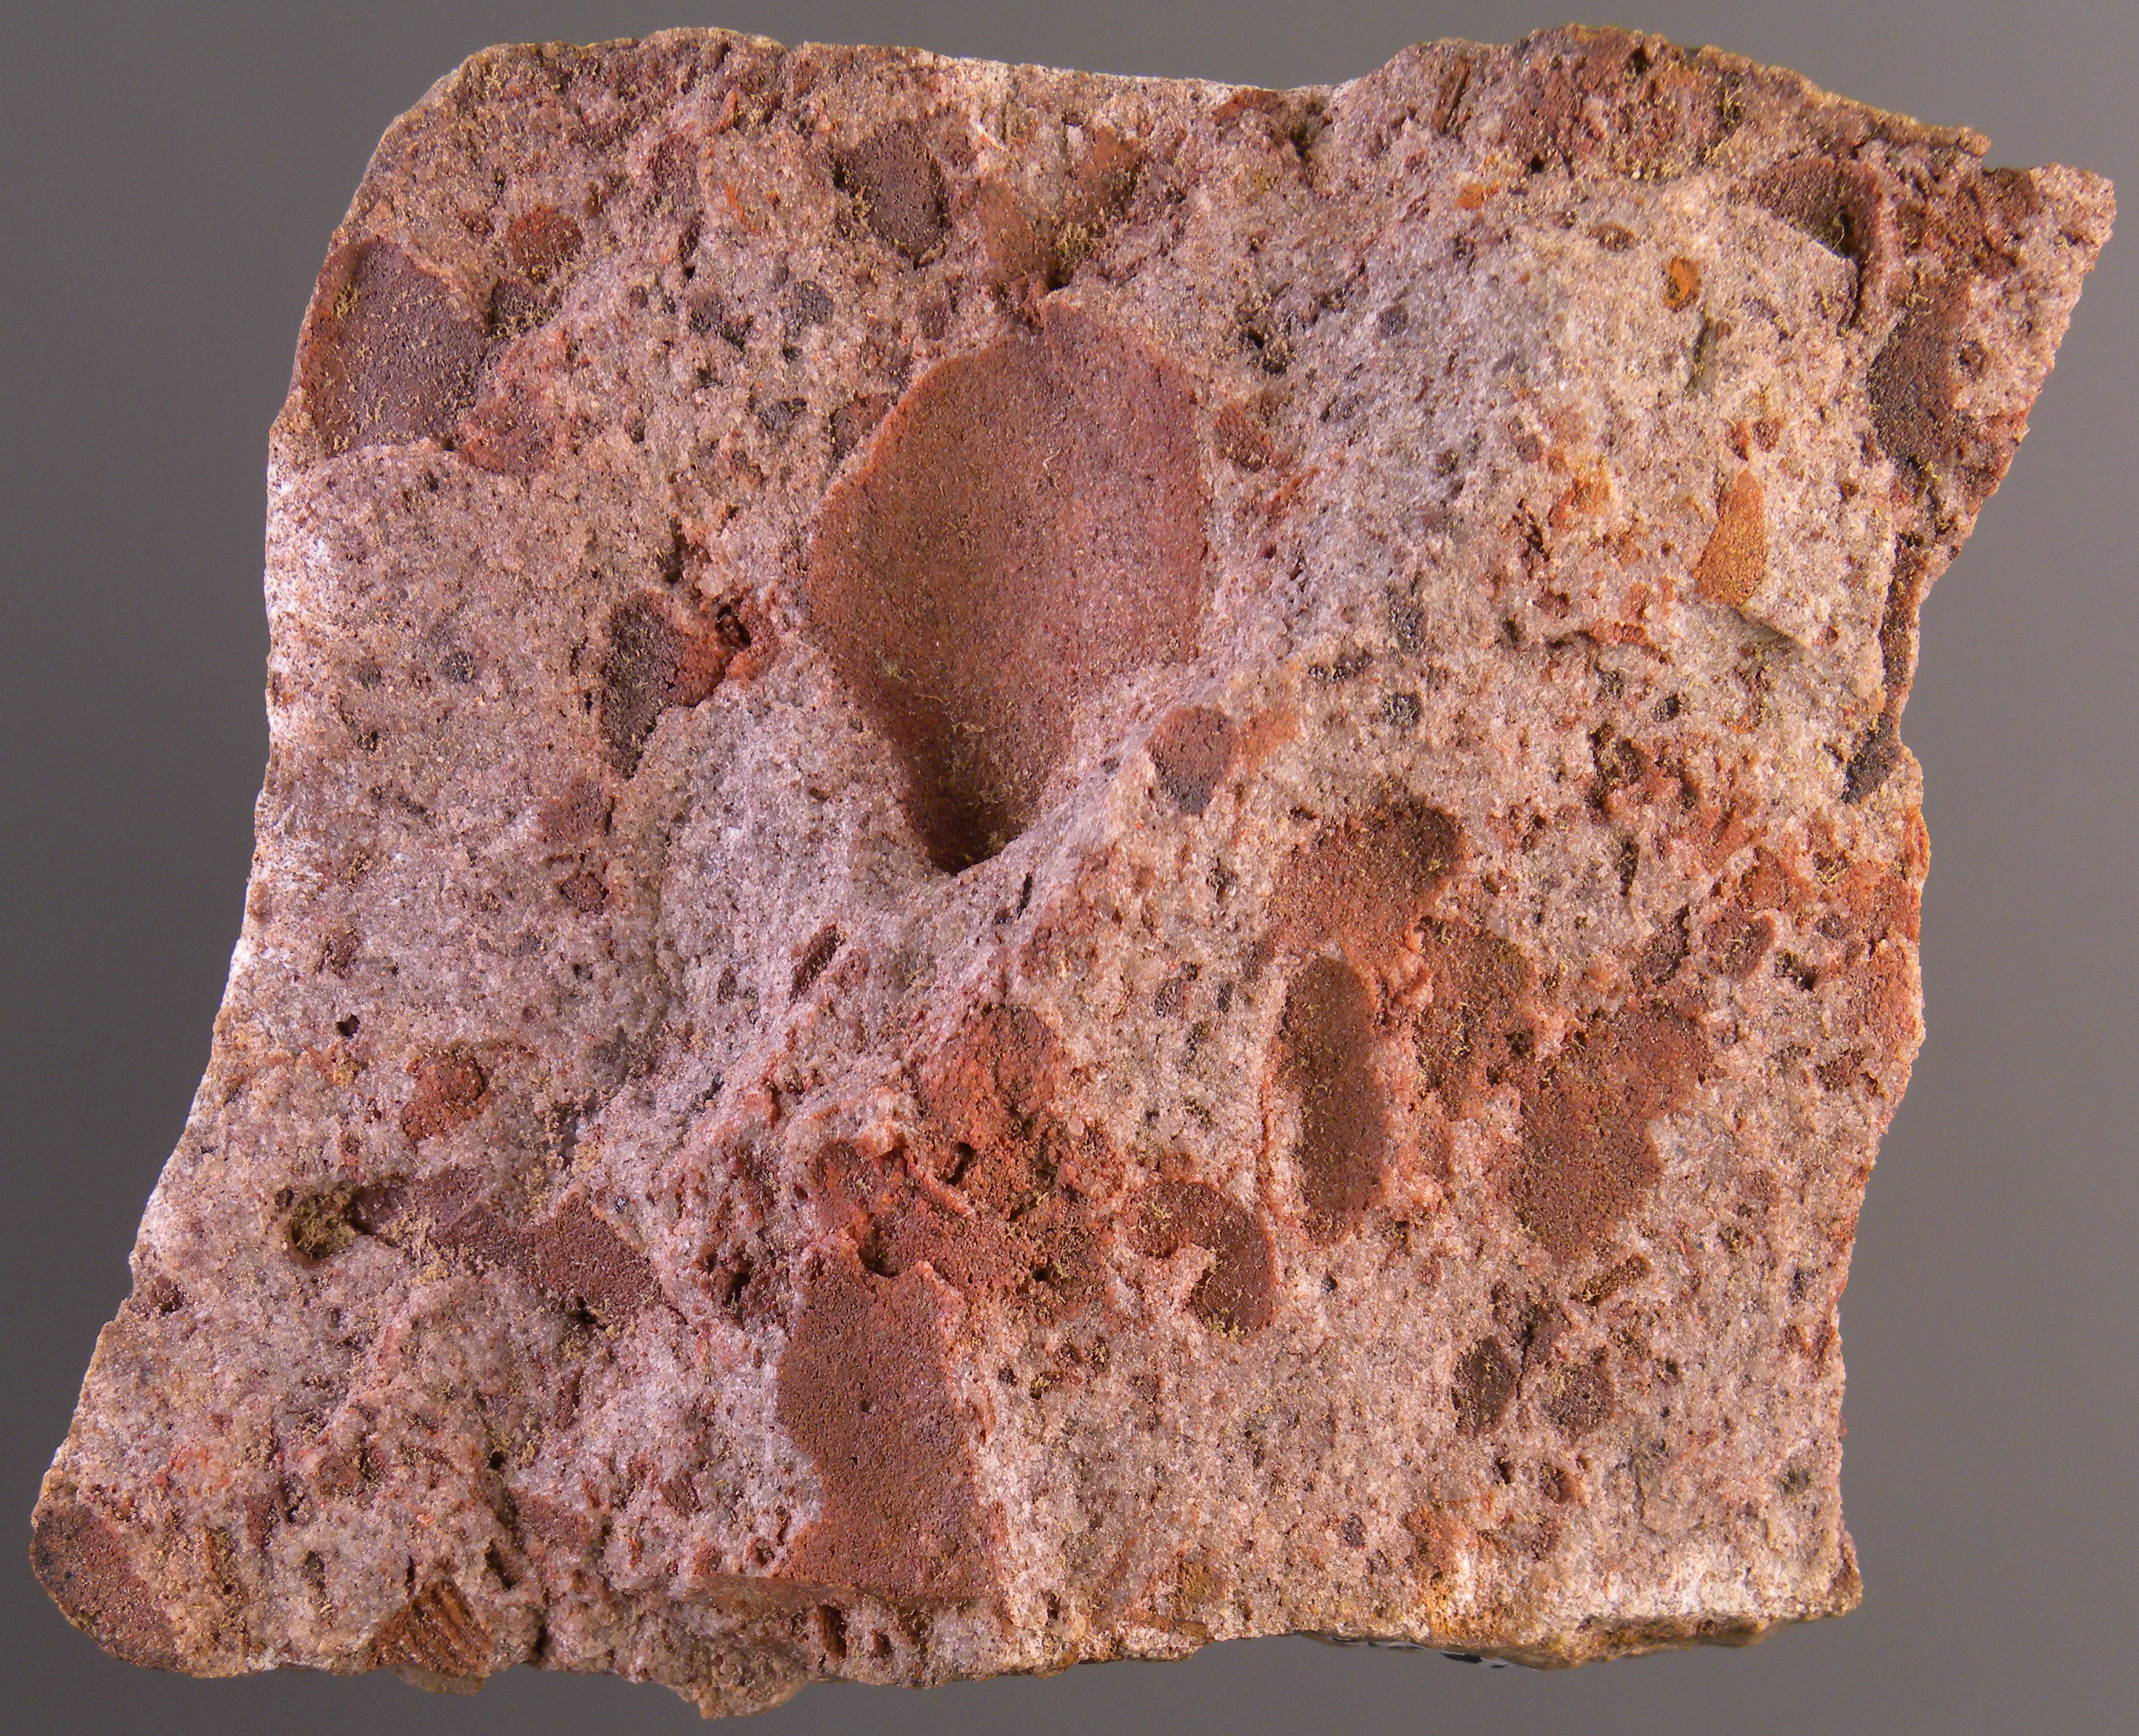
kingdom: Animalia
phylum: Mollusca
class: Bivalvia
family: Orthonotidae
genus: Palaeosolen
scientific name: Palaeosolen
